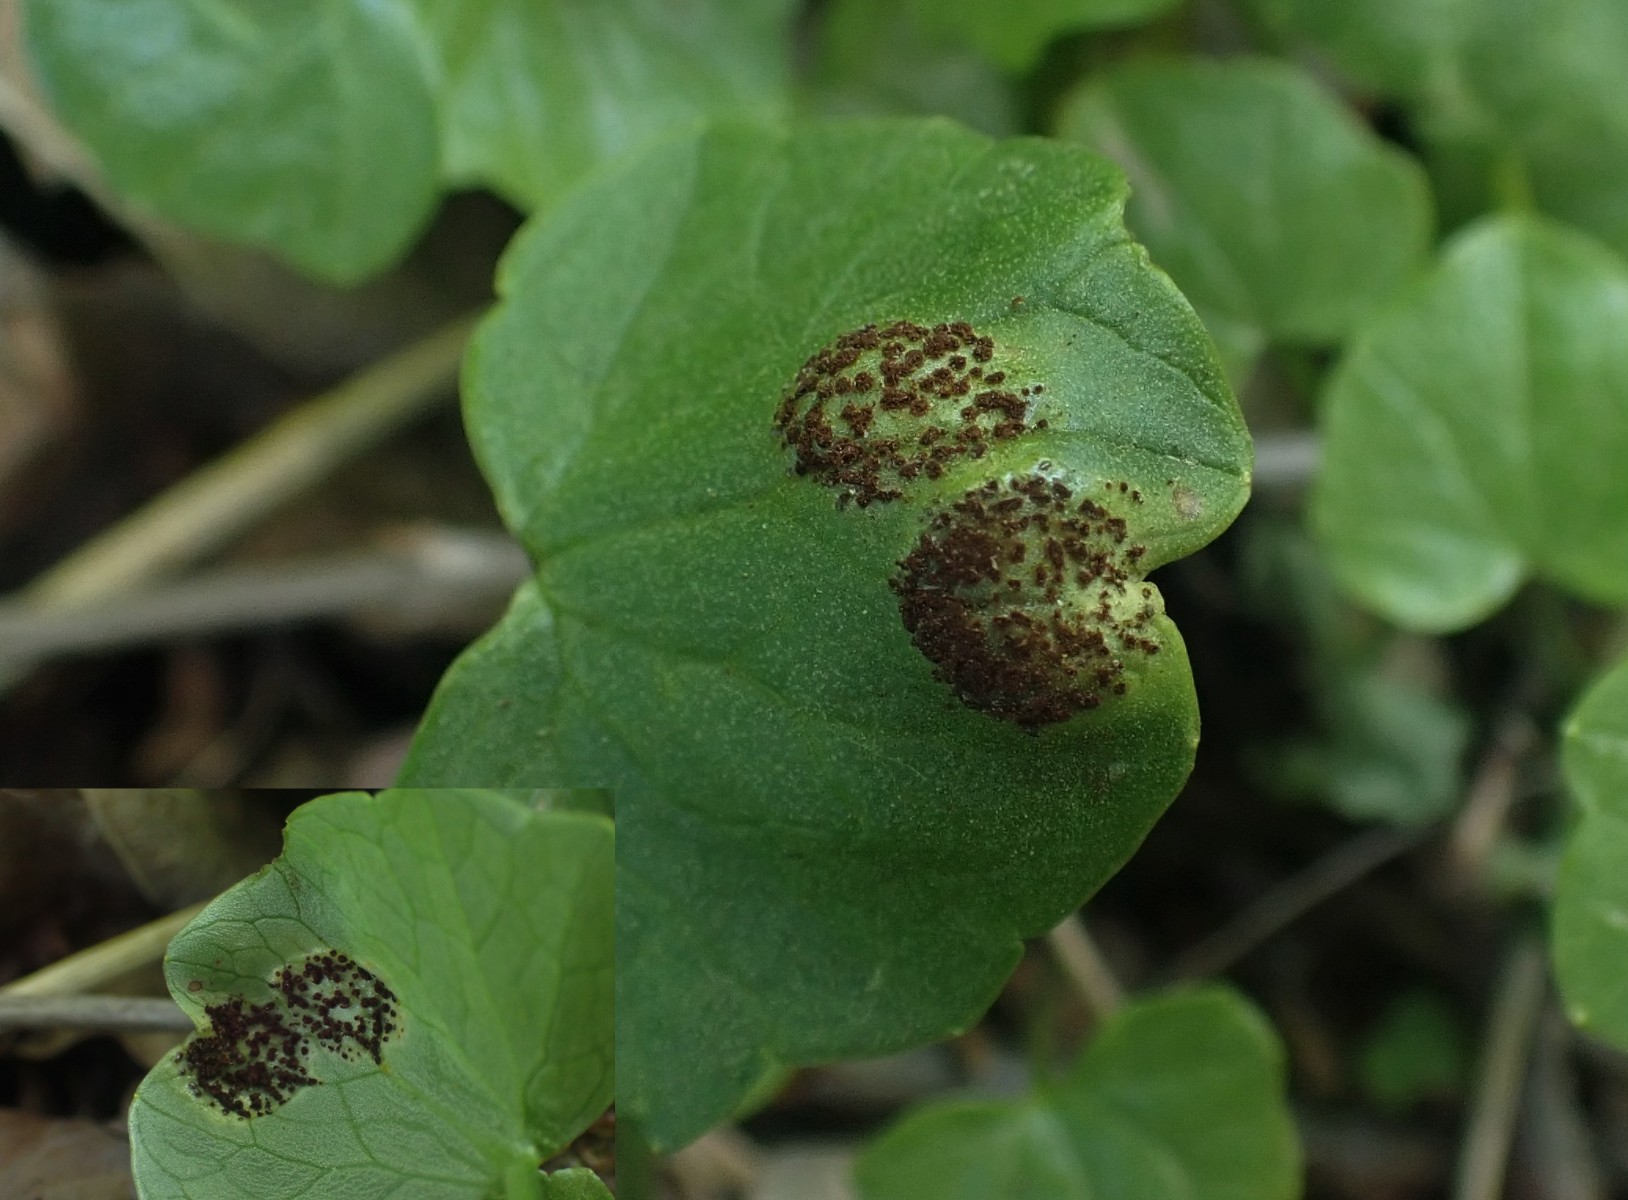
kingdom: Fungi
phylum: Basidiomycota
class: Pucciniomycetes
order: Pucciniales
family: Pucciniaceae
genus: Uromyces
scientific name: Uromyces ficariae
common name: vorterod-encellerust
